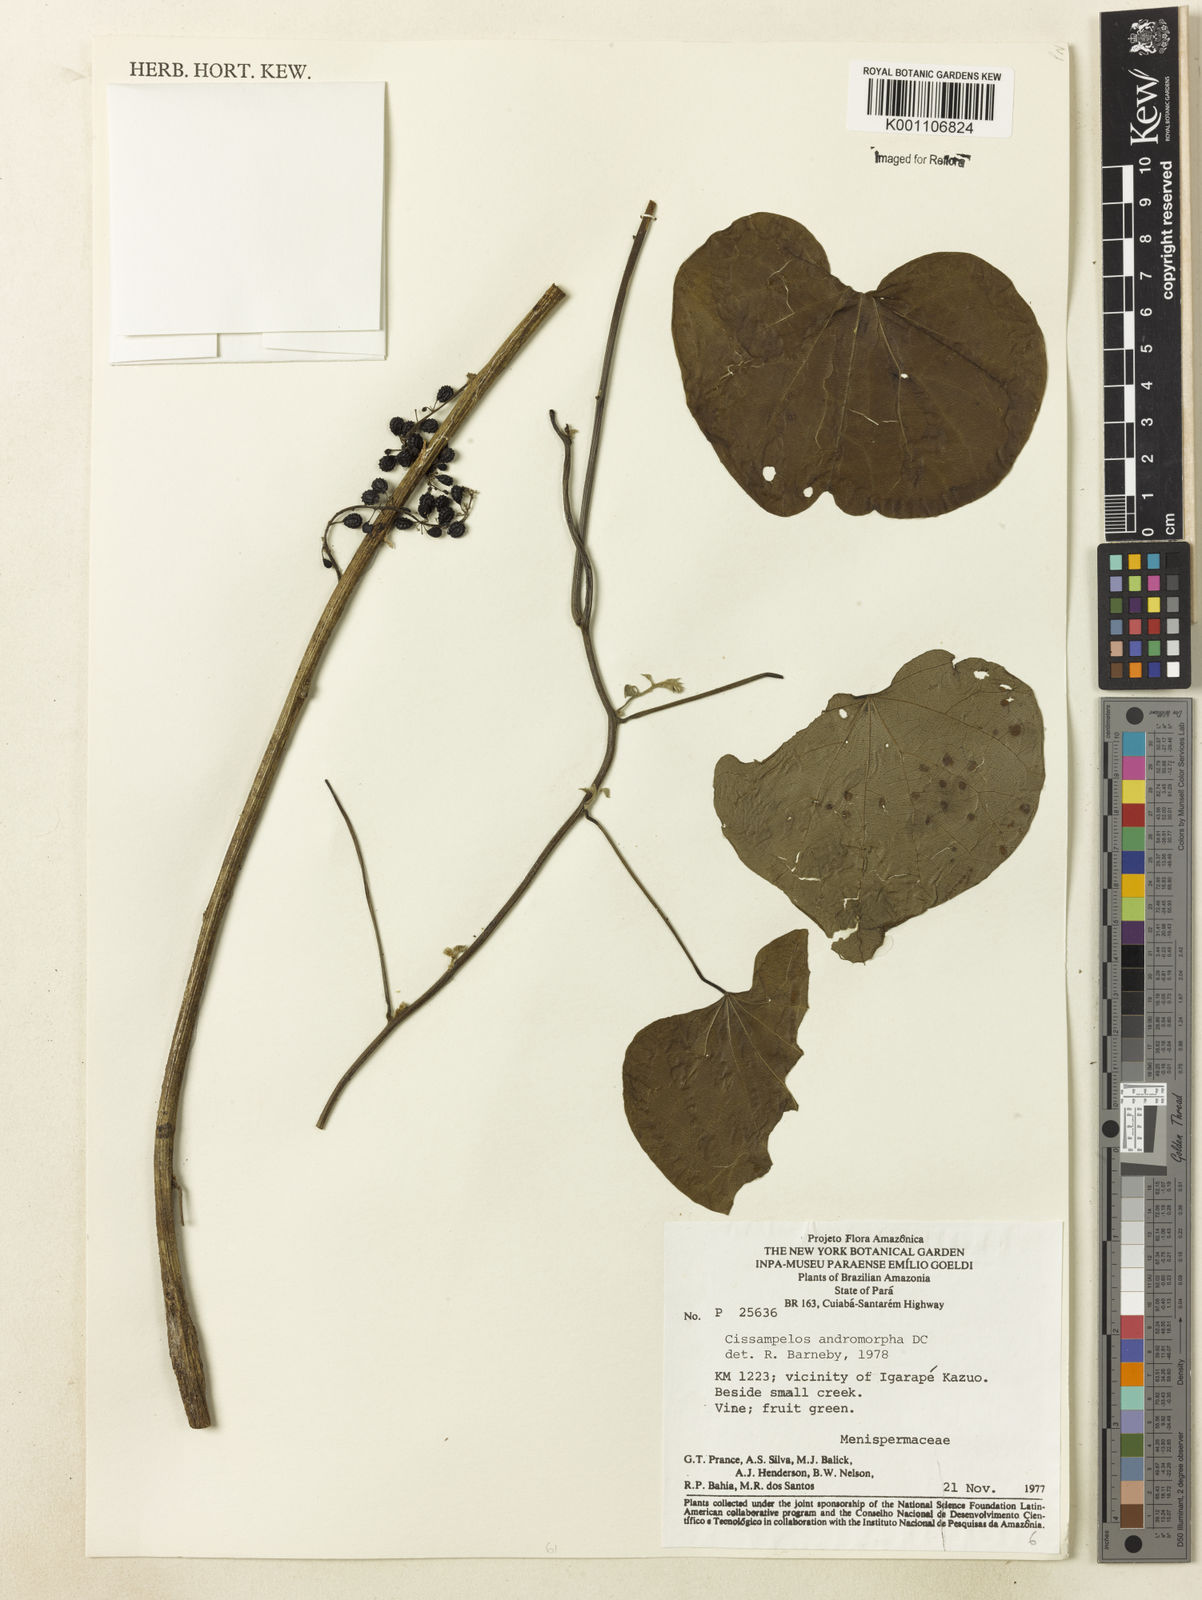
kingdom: Plantae
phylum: Tracheophyta
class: Magnoliopsida
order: Ranunculales
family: Menispermaceae
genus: Cissampelos
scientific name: Cissampelos andromorpha
